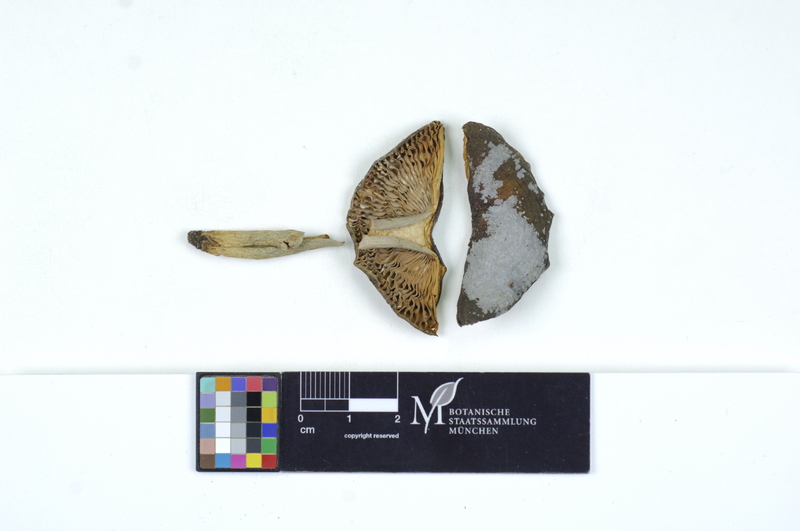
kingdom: Fungi
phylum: Basidiomycota
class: Agaricomycetes
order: Russulales
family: Russulaceae
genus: Russula
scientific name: Russula violeipes
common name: Velvet brittlegill
